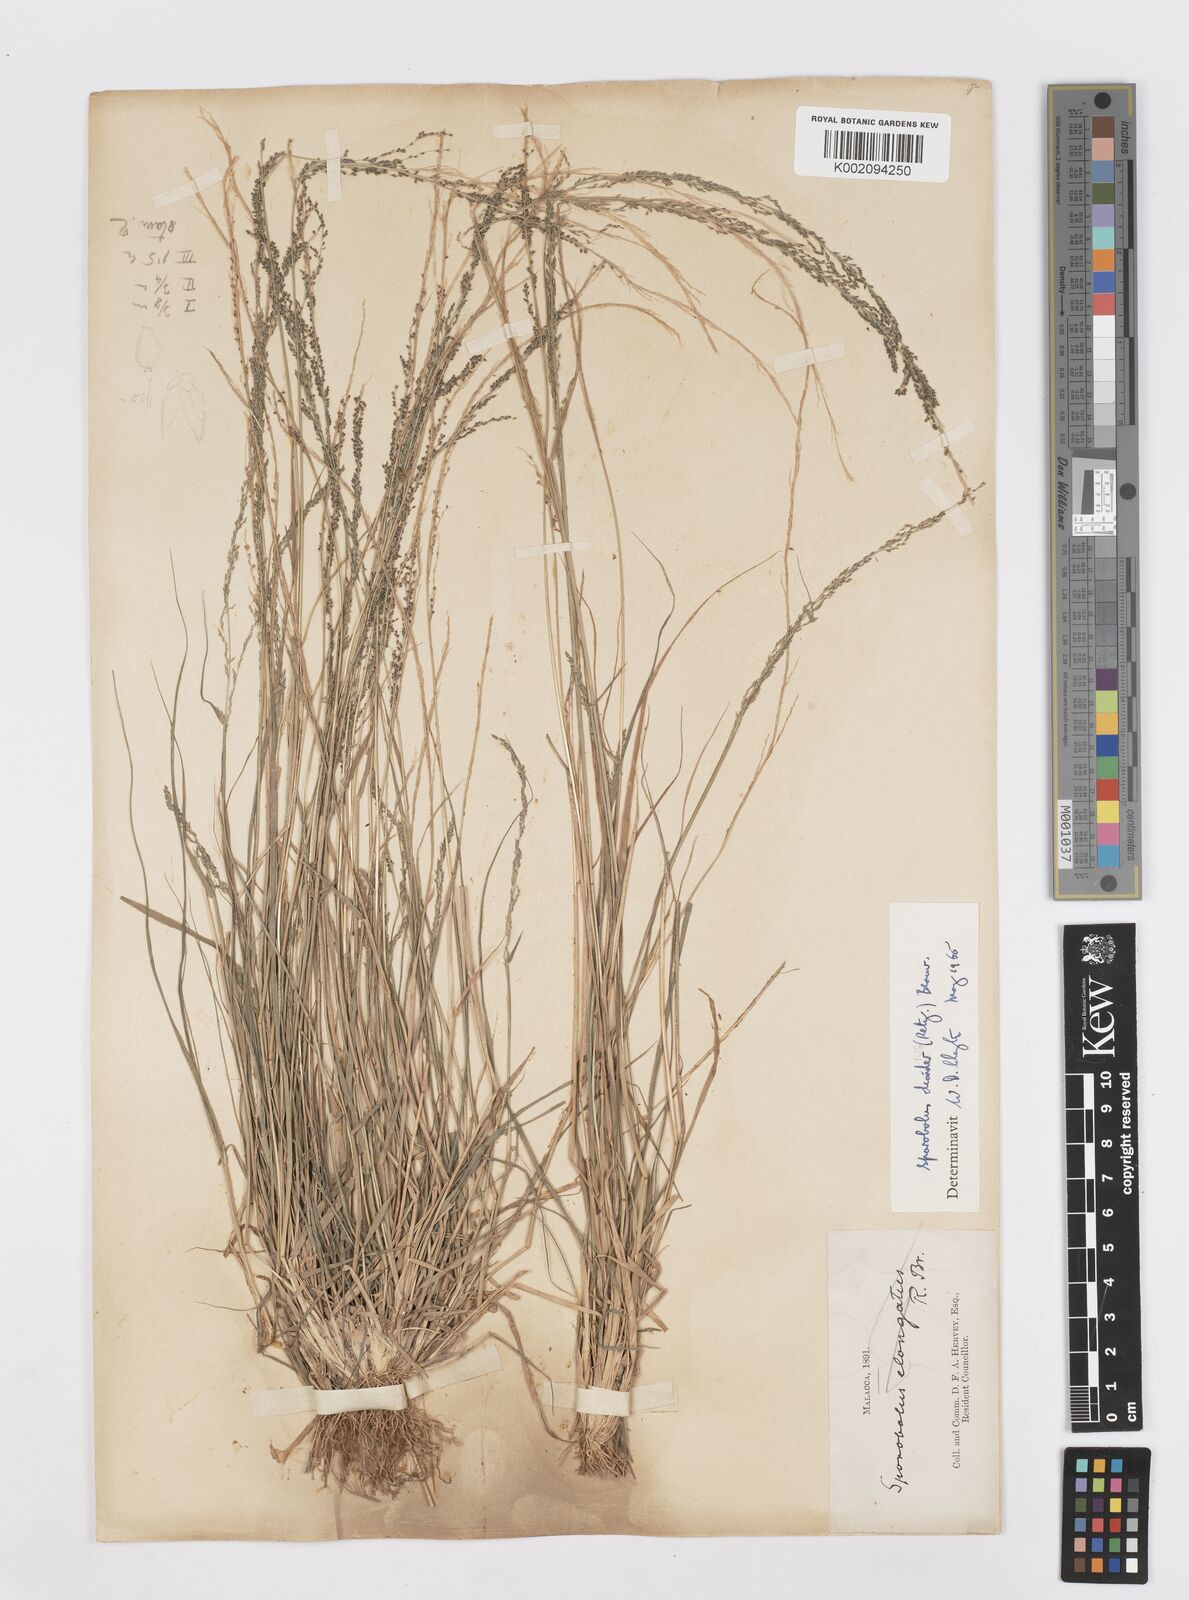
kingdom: Plantae
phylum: Tracheophyta
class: Liliopsida
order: Poales
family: Poaceae
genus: Sporobolus
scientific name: Sporobolus diandrus
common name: Tussock dropseed
